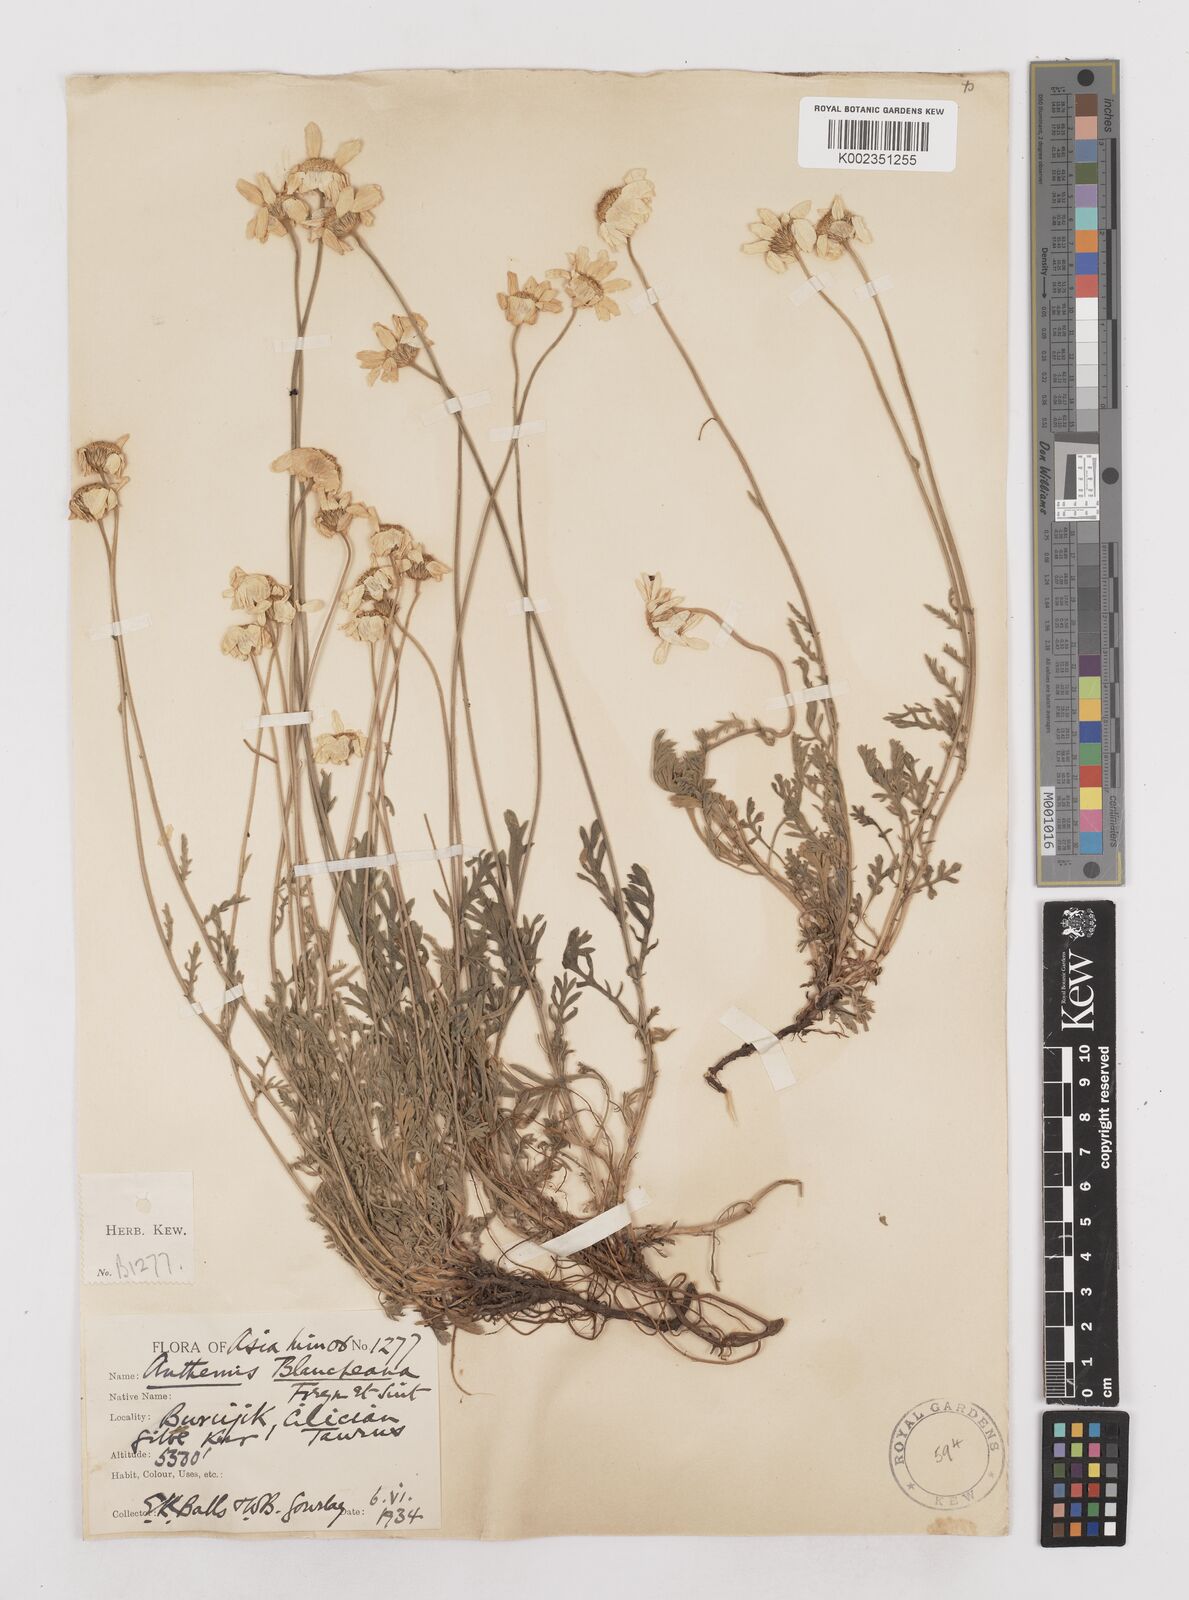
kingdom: Plantae
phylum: Tracheophyta
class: Magnoliopsida
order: Asterales
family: Asteraceae
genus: Anthemis
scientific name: Anthemis cretica
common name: Mountain dog-daisy
